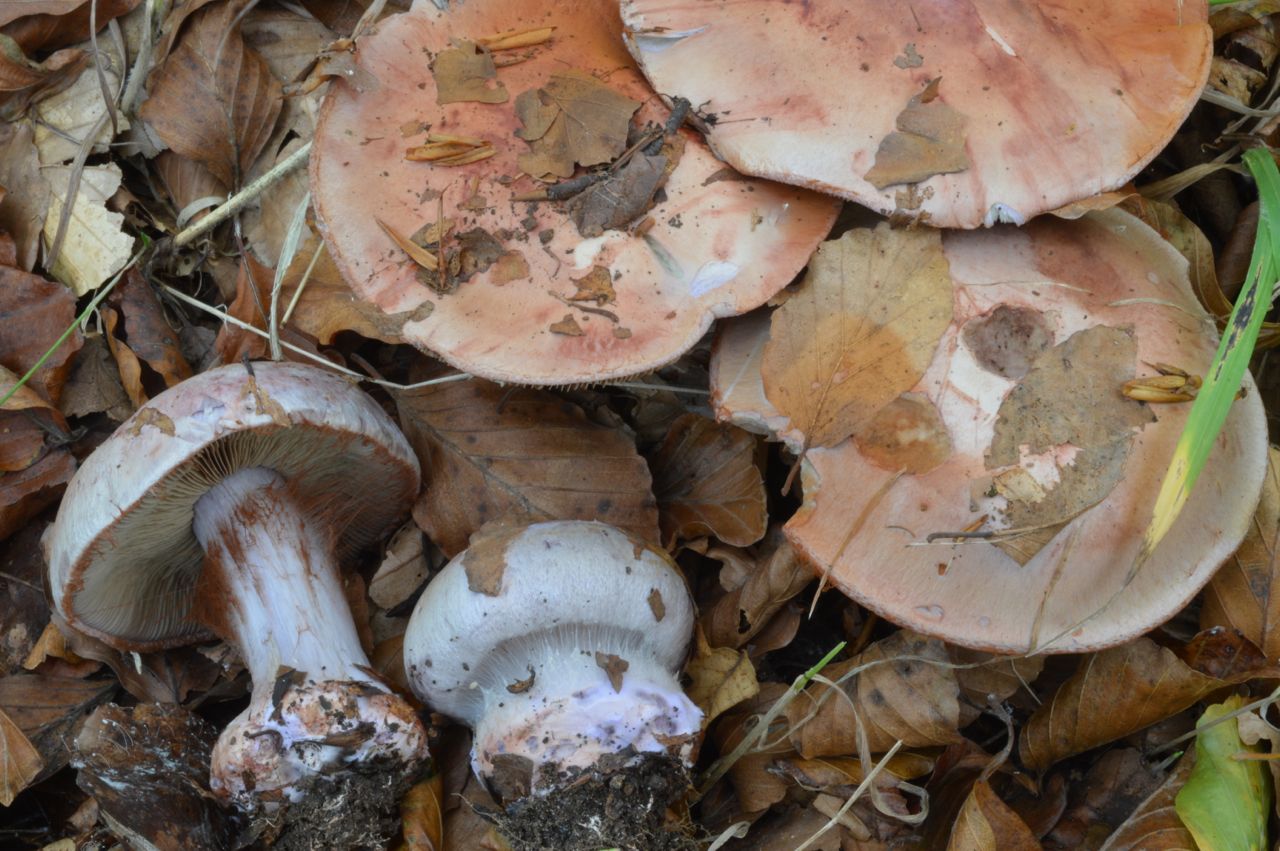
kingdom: Fungi
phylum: Basidiomycota
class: Agaricomycetes
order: Agaricales
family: Cortinariaceae
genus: Calonarius
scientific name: Calonarius rufo-olivaceus
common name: firefarvet slørhat
